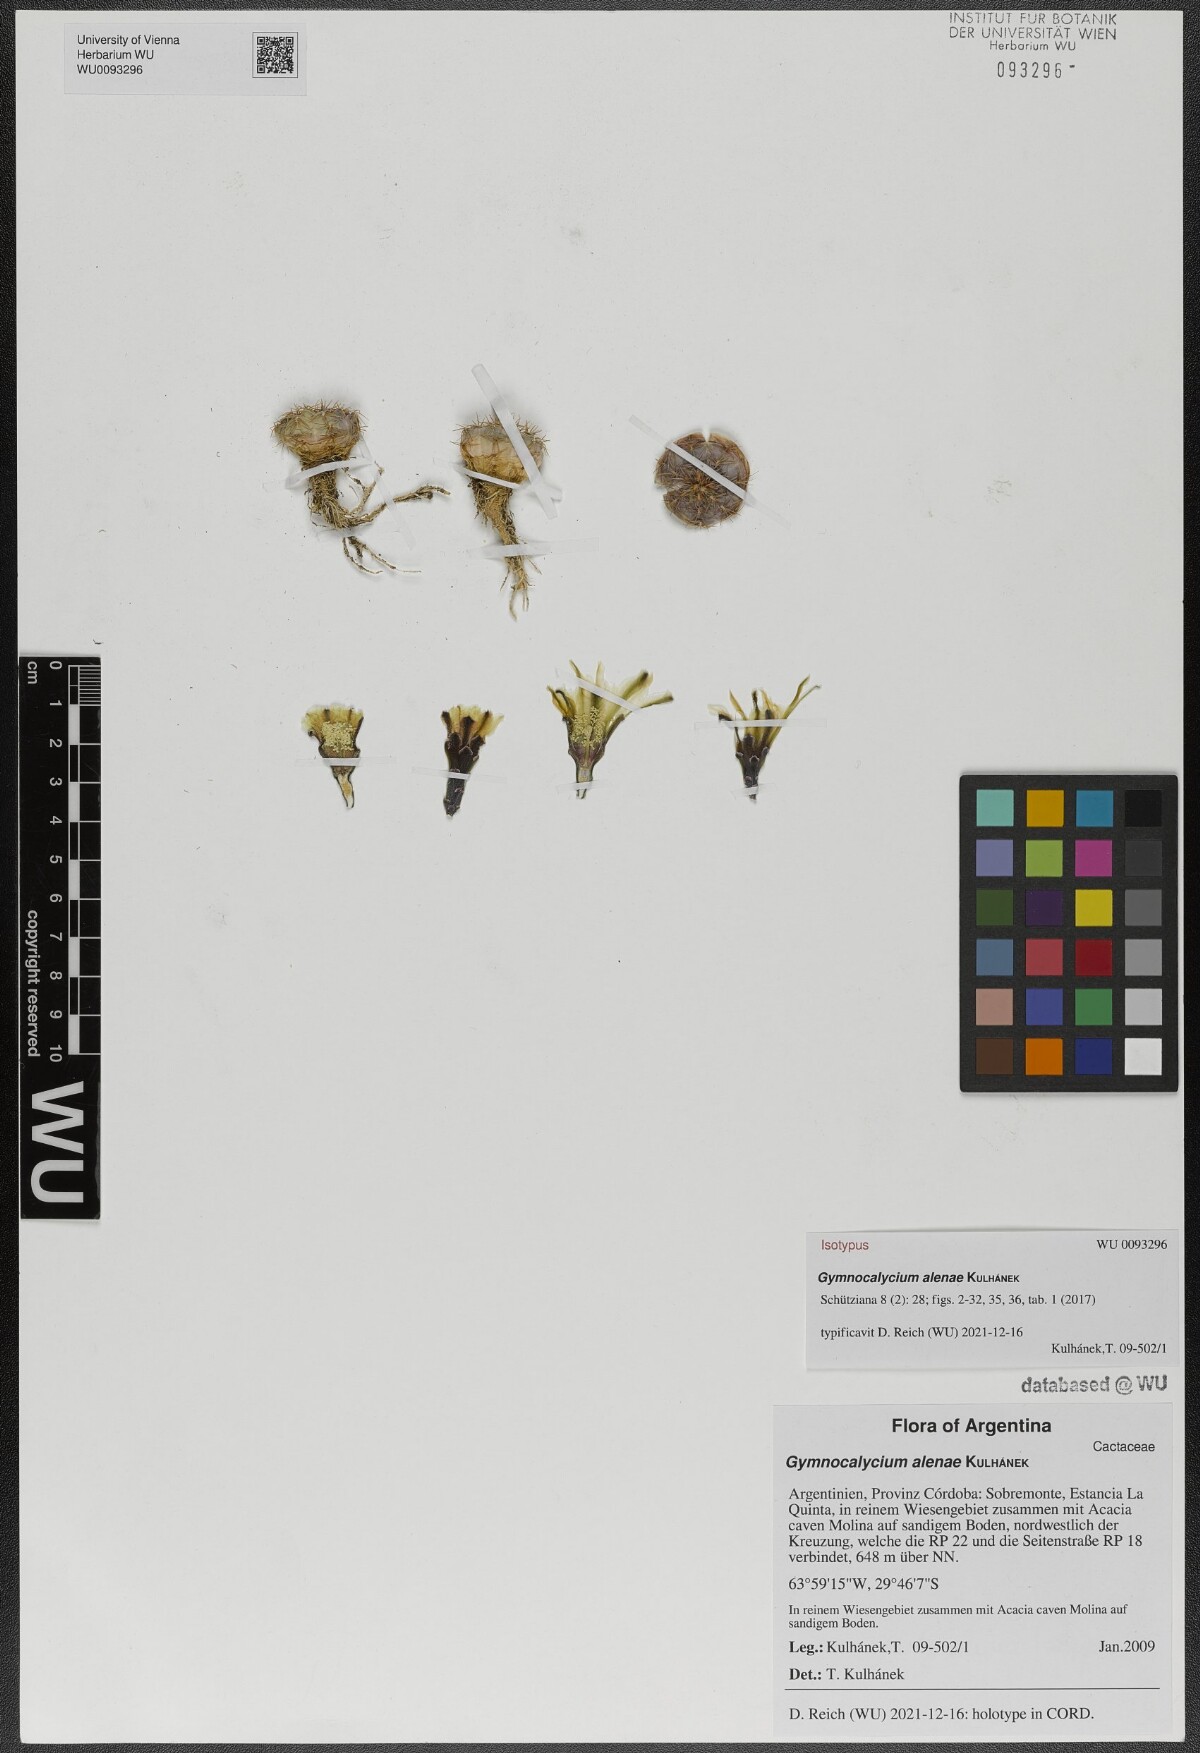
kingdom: Plantae
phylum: Tracheophyta
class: Magnoliopsida
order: Caryophyllales
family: Cactaceae
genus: Gymnocalycium
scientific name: Gymnocalycium alenae
